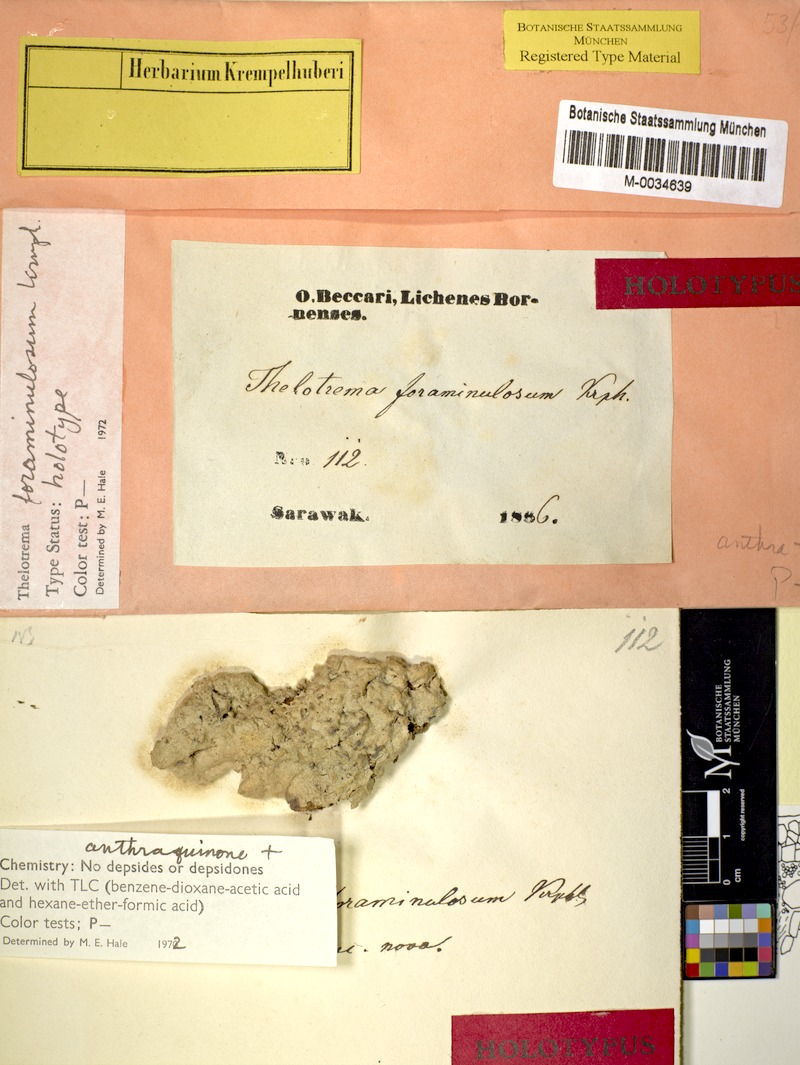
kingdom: Fungi
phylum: Ascomycota
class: Lecanoromycetes
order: Ostropales
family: Graphidaceae
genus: Sanguinotrema
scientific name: Sanguinotrema wightii
